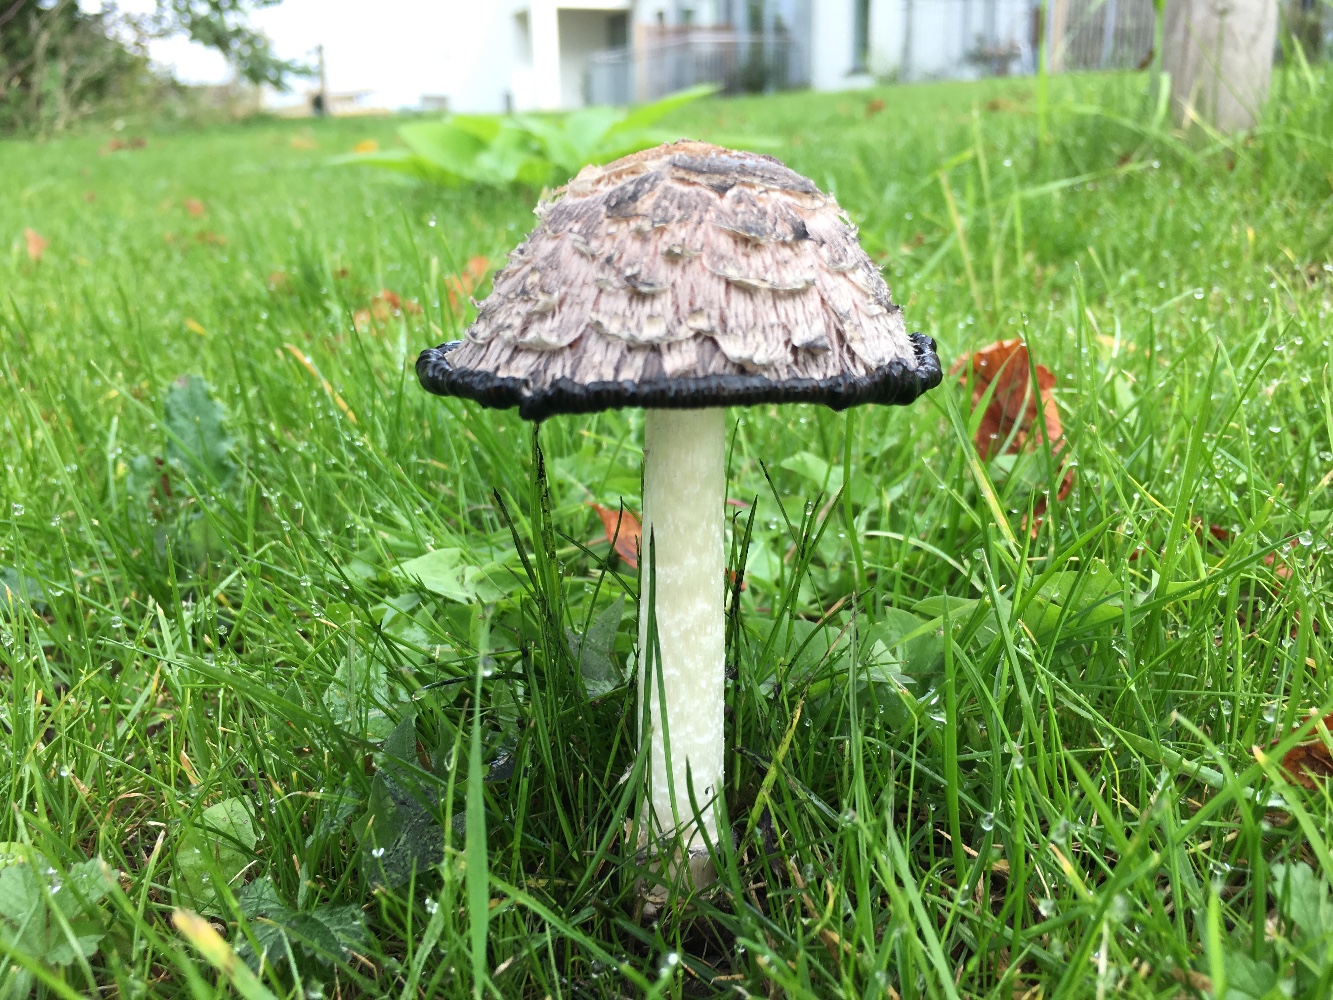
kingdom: Fungi
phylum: Basidiomycota
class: Agaricomycetes
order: Agaricales
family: Agaricaceae
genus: Coprinus
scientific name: Coprinus comatus
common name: stor parykhat
